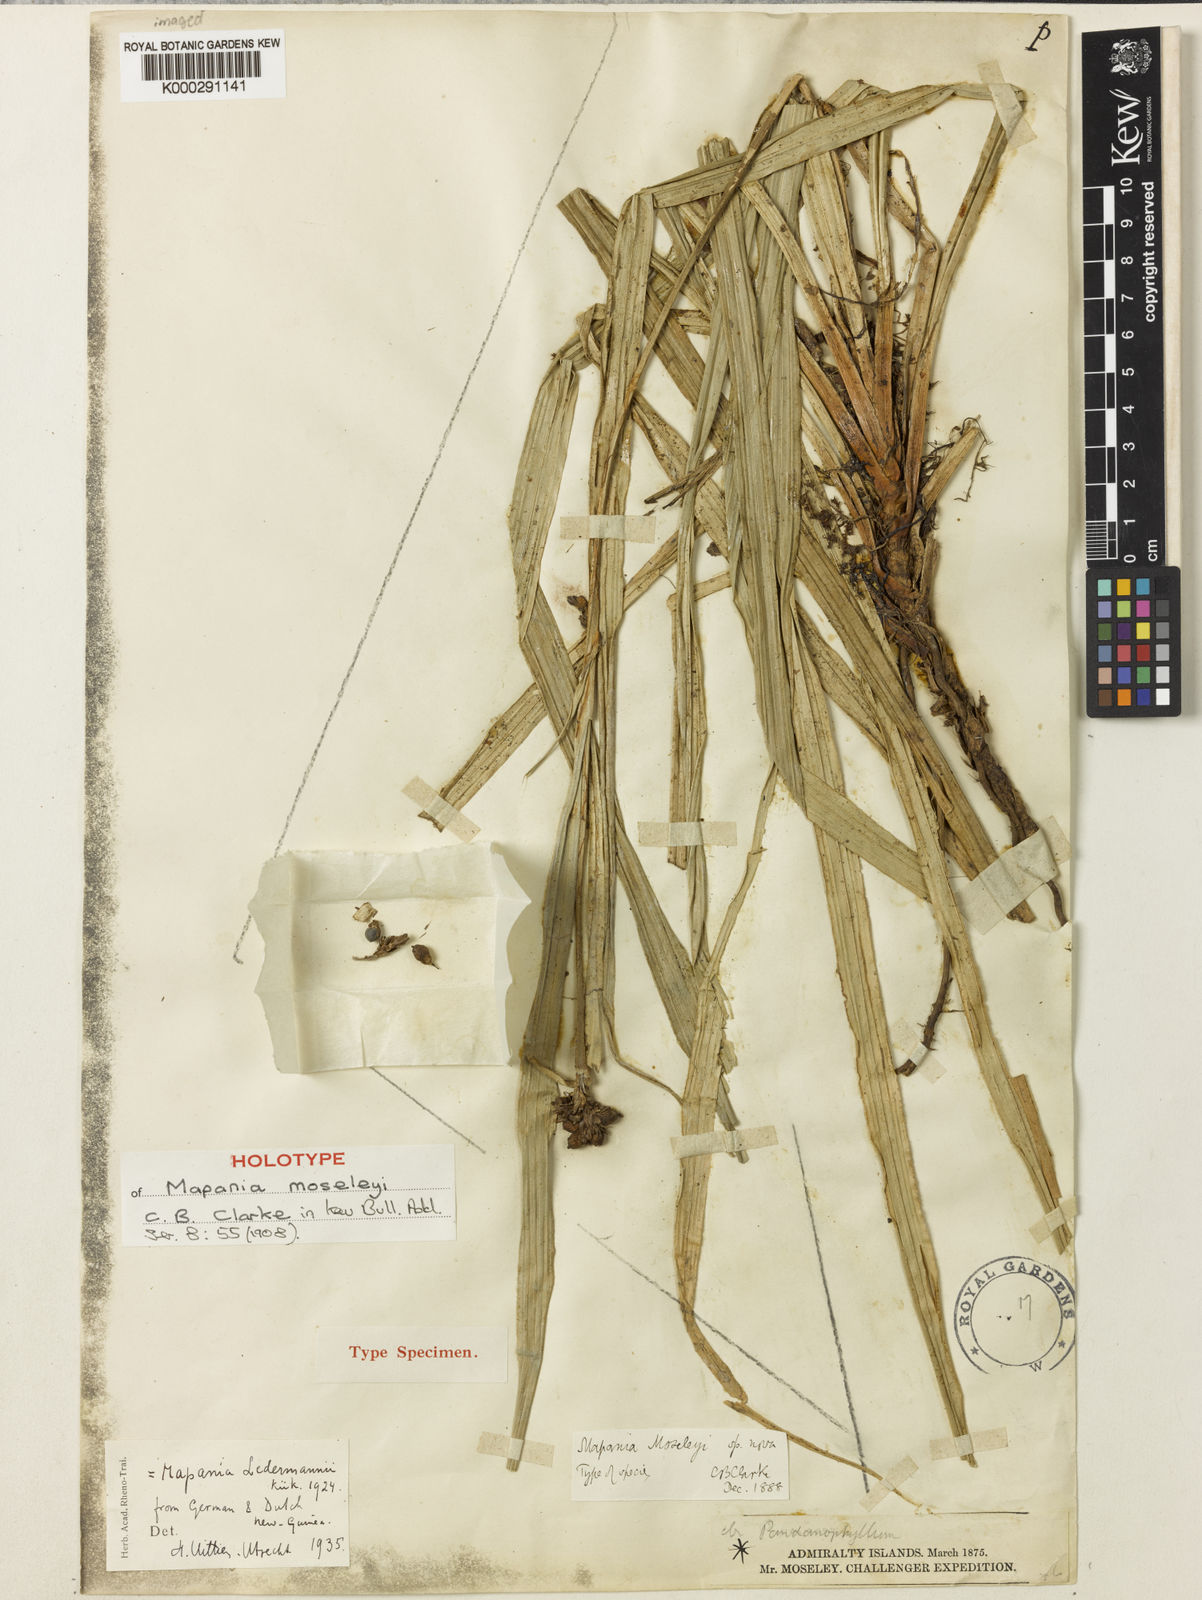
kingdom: Plantae
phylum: Tracheophyta
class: Liliopsida
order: Poales
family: Cyperaceae
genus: Mapania
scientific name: Mapania moseleyi
